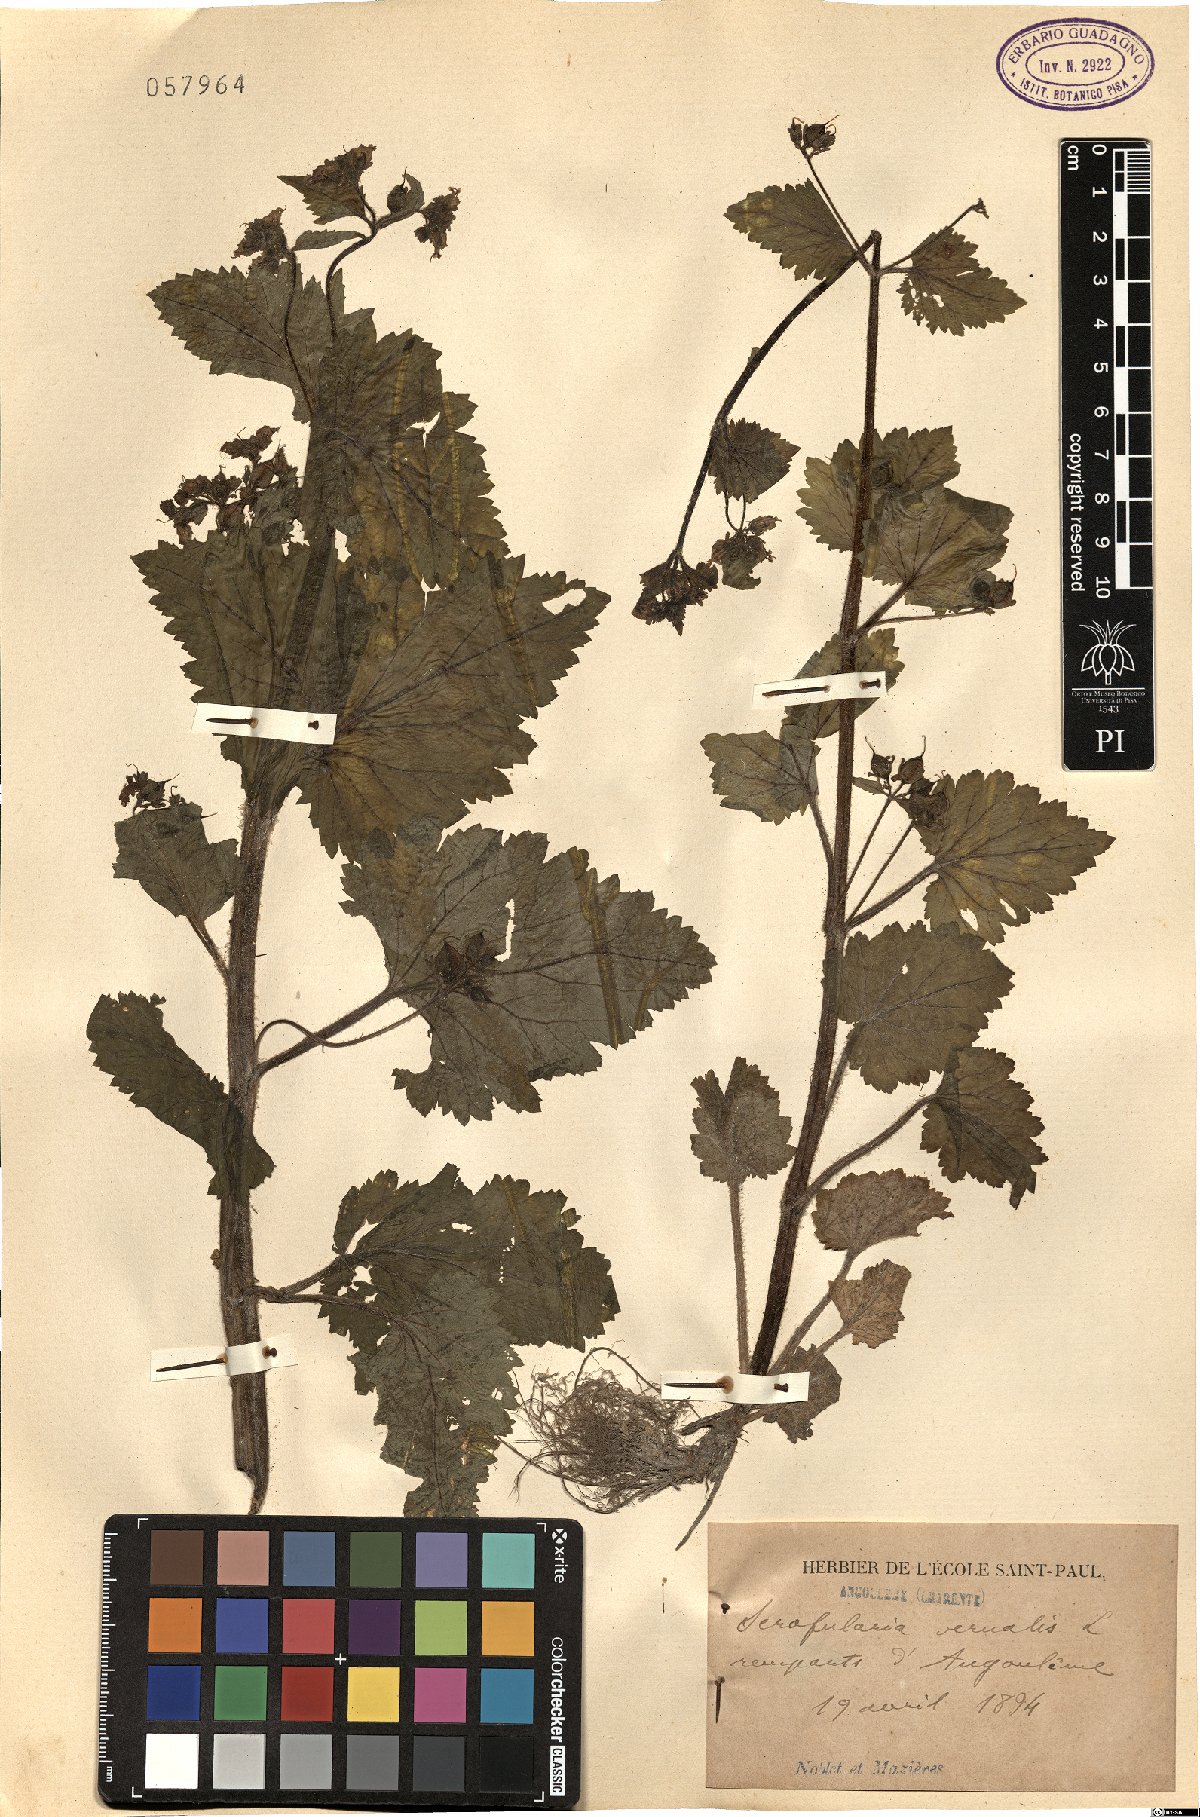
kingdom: Plantae
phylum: Tracheophyta
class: Magnoliopsida
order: Lamiales
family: Scrophulariaceae
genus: Scrophularia
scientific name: Scrophularia vernalis
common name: Yellow figwort
